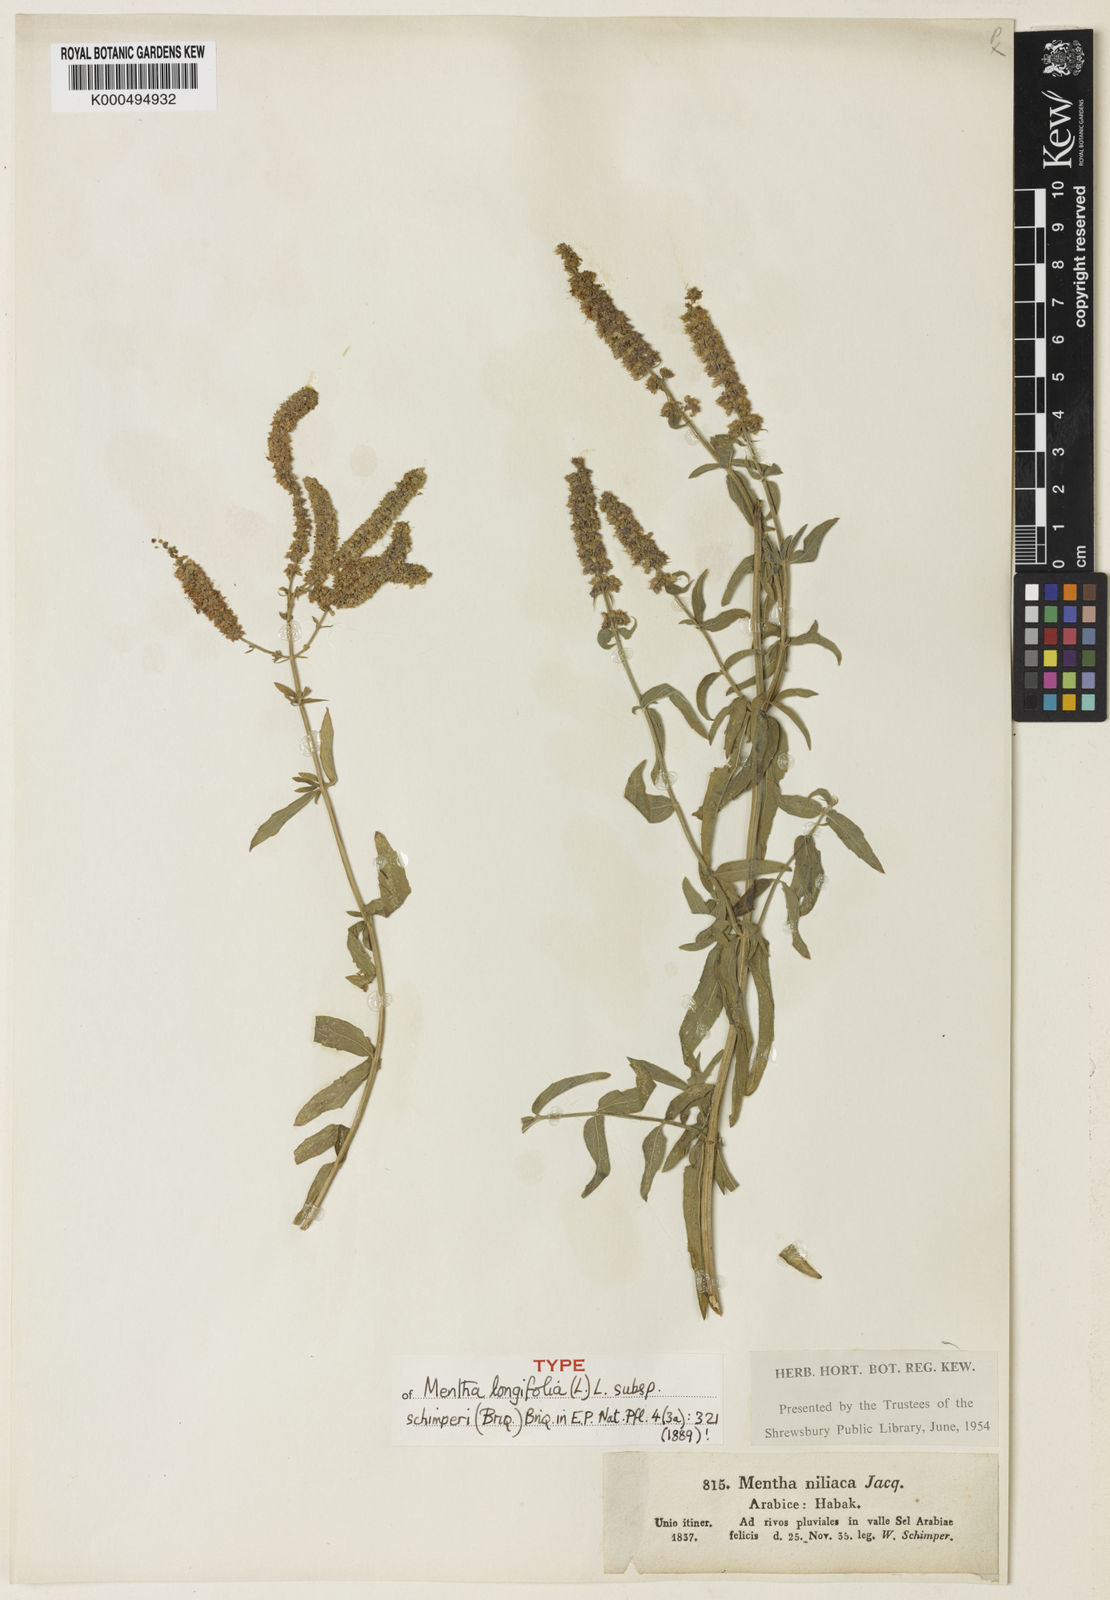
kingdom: Plantae
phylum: Tracheophyta
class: Magnoliopsida
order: Lamiales
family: Lamiaceae
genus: Mentha
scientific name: Mentha longifolia
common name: Horse mint
